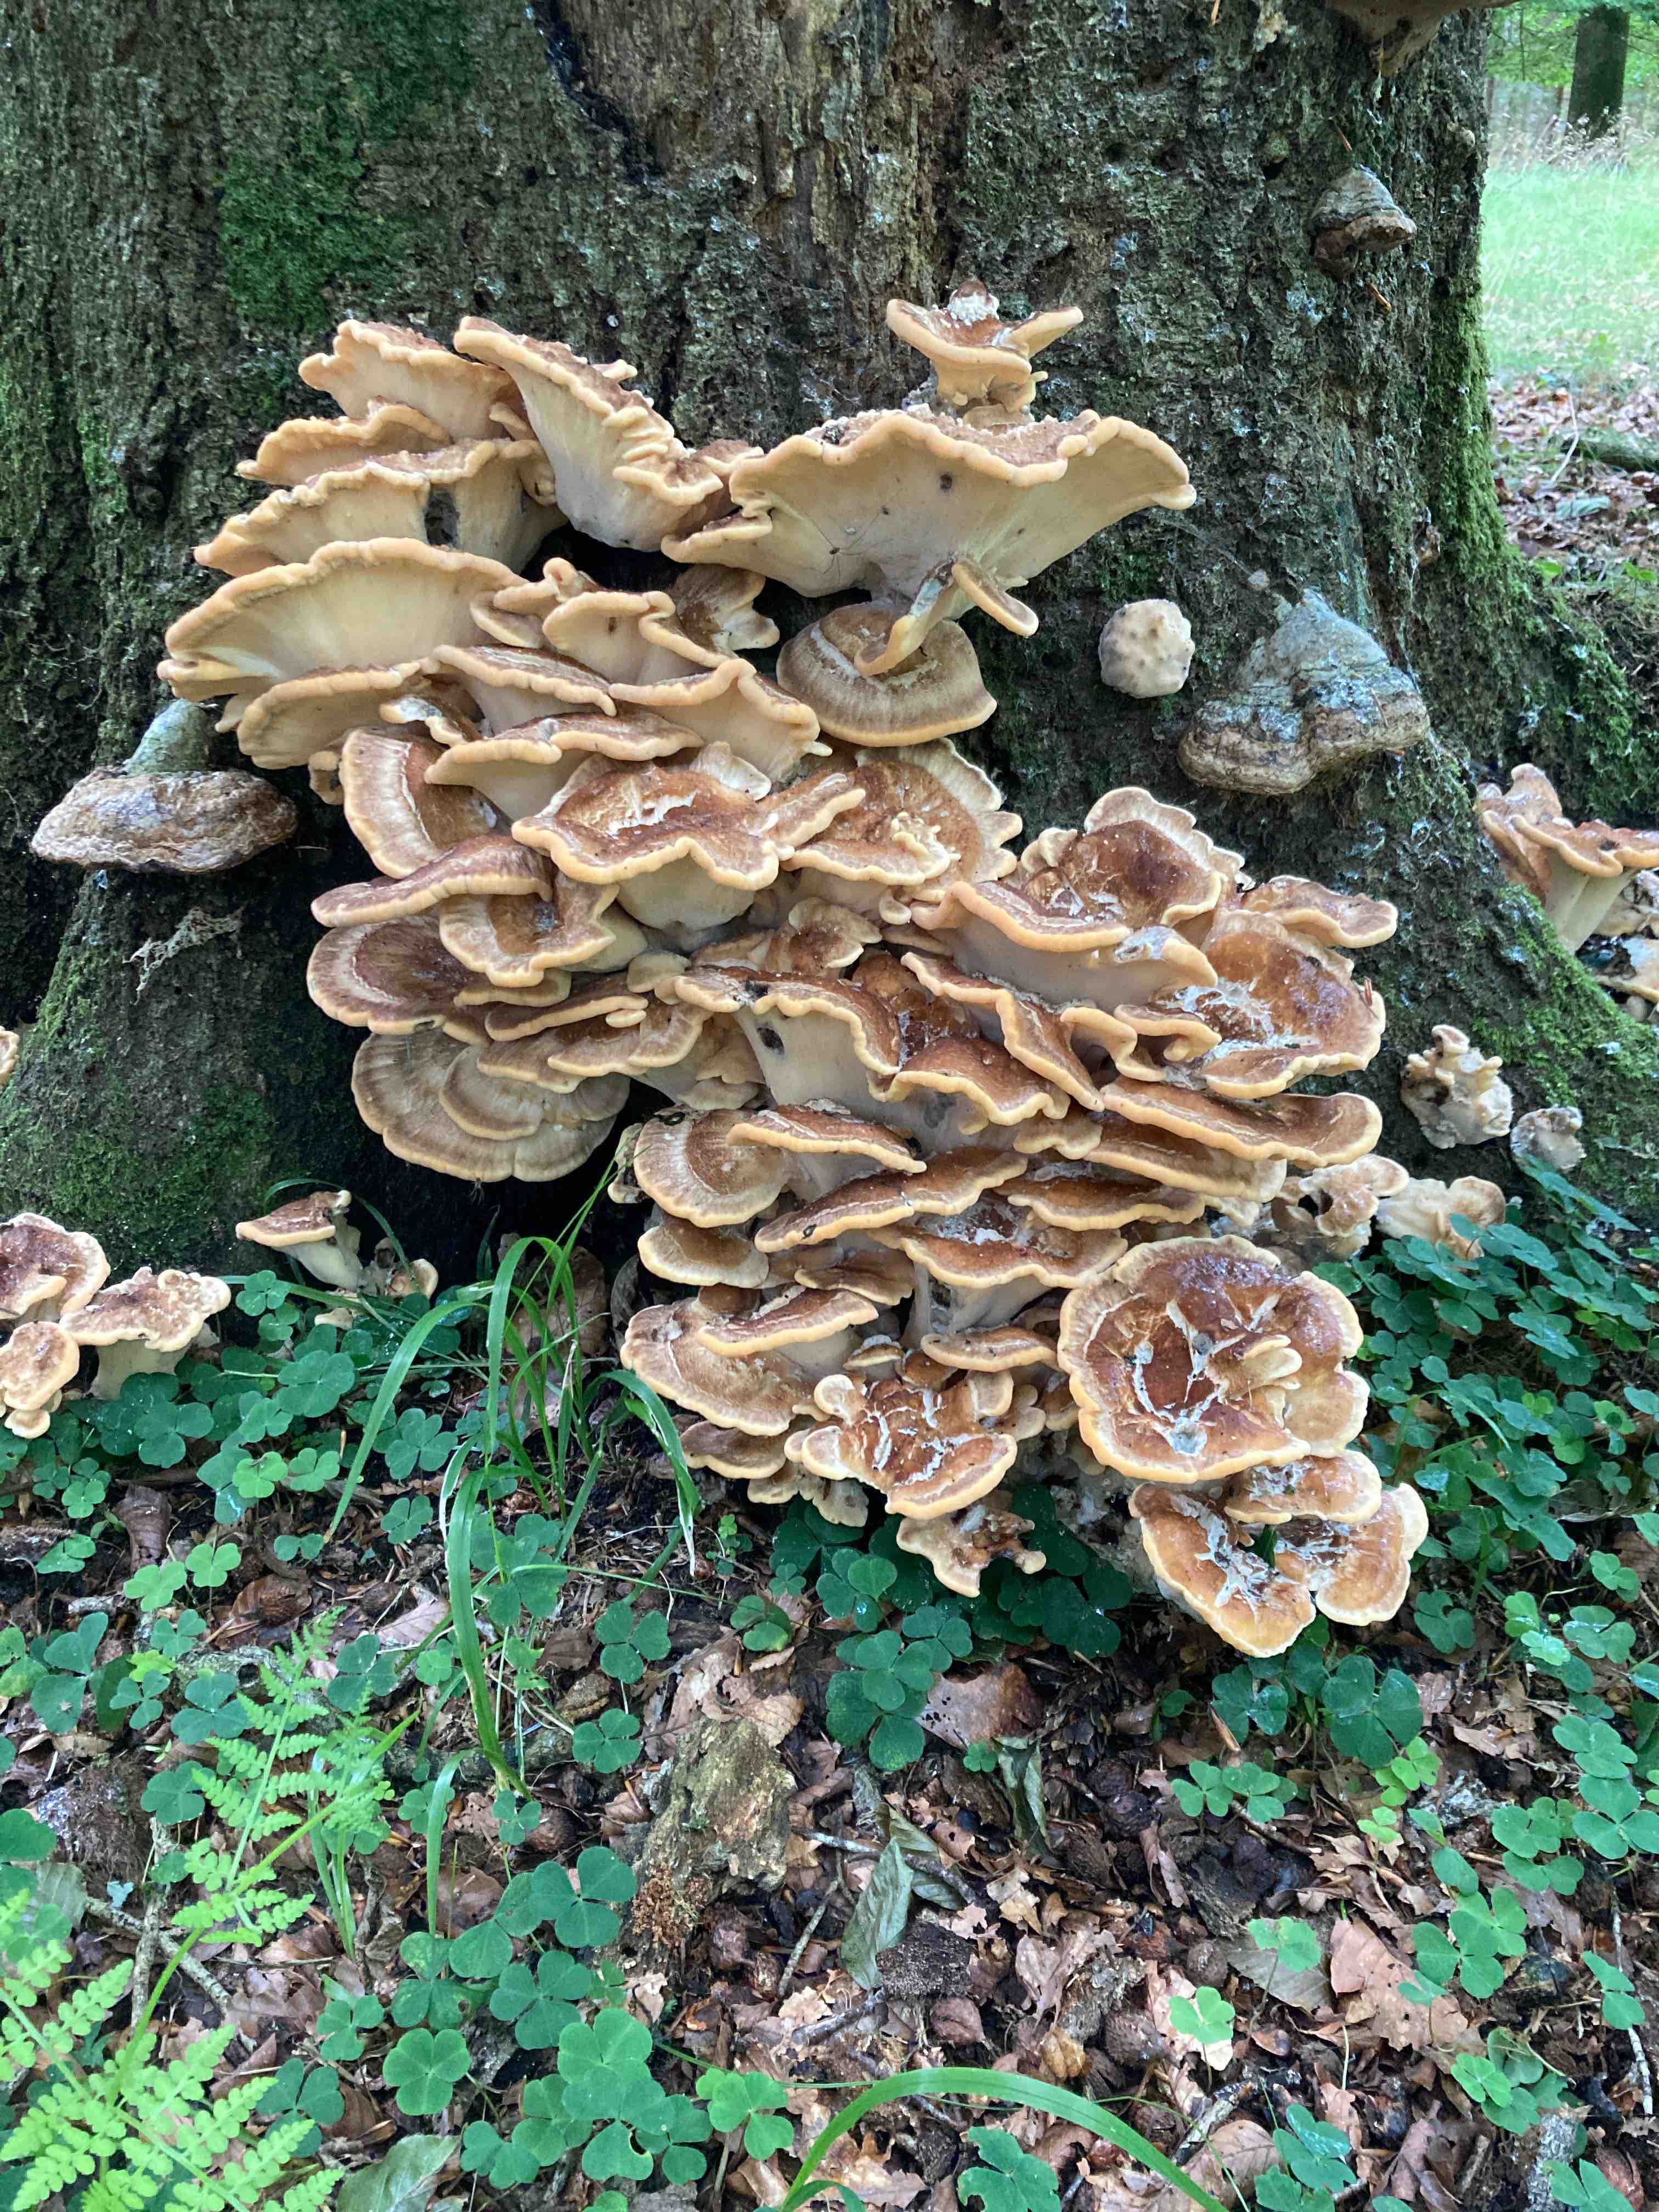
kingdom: Fungi
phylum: Basidiomycota
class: Agaricomycetes
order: Polyporales
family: Meripilaceae
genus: Meripilus
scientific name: Meripilus giganteus
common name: kæmpeporesvamp
